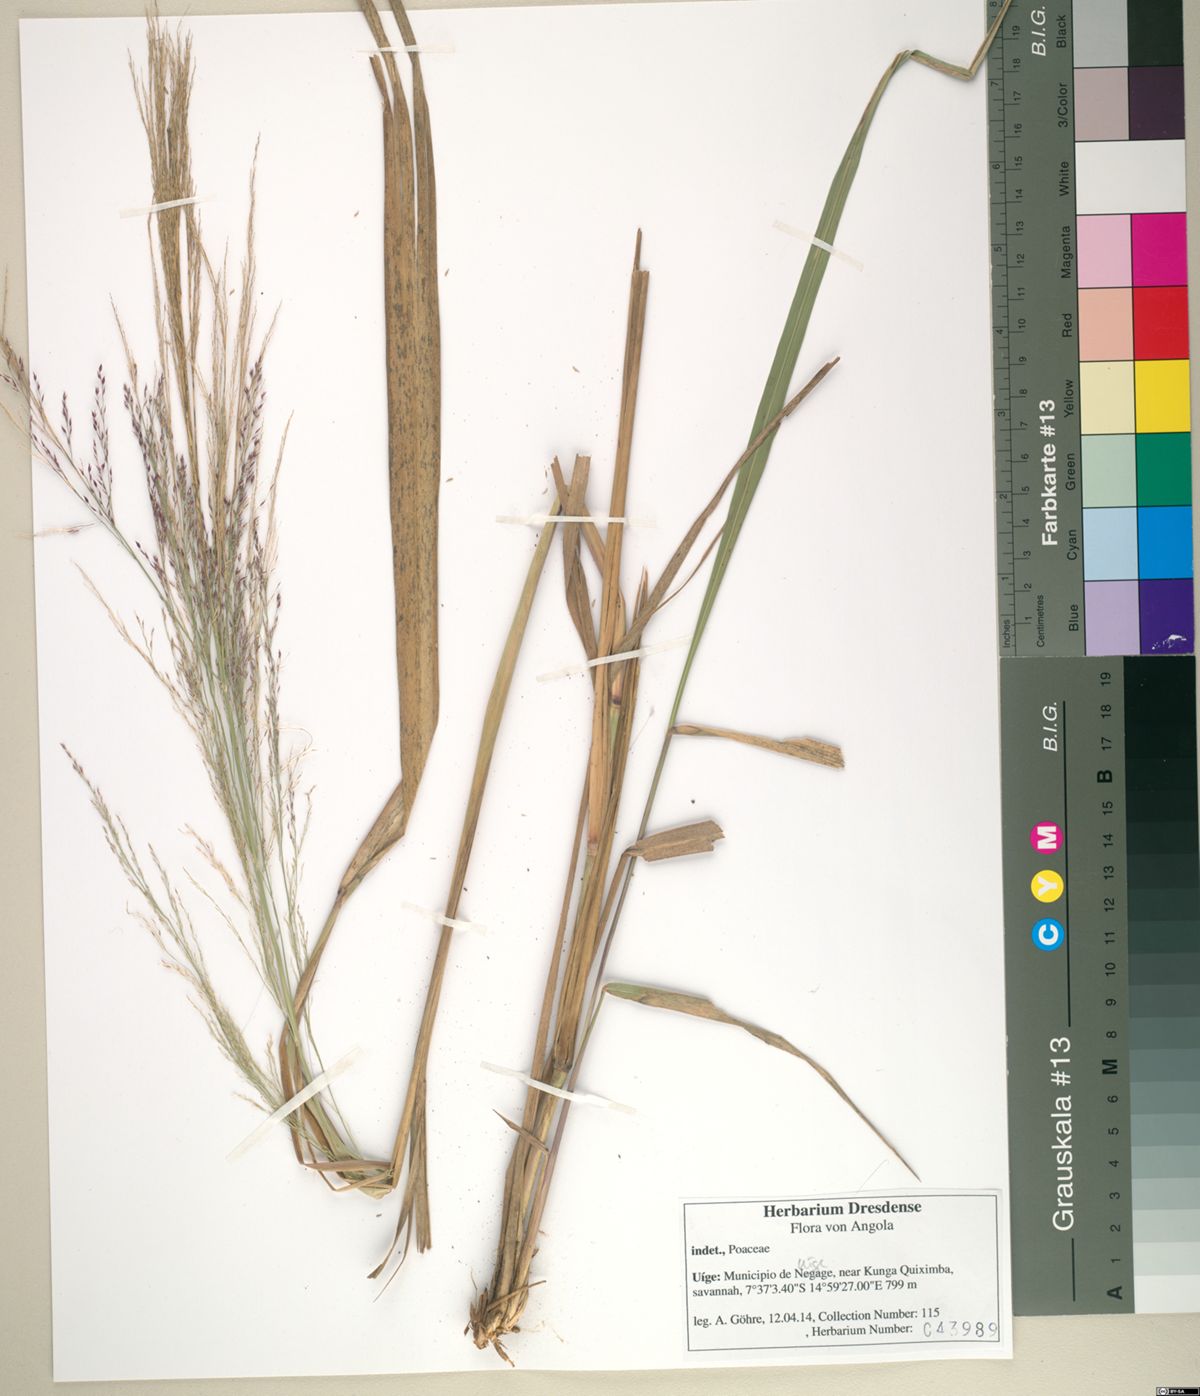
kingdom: Plantae
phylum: Tracheophyta
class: Liliopsida
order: Poales
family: Poaceae
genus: Panicum
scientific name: Panicum phragmitoides
